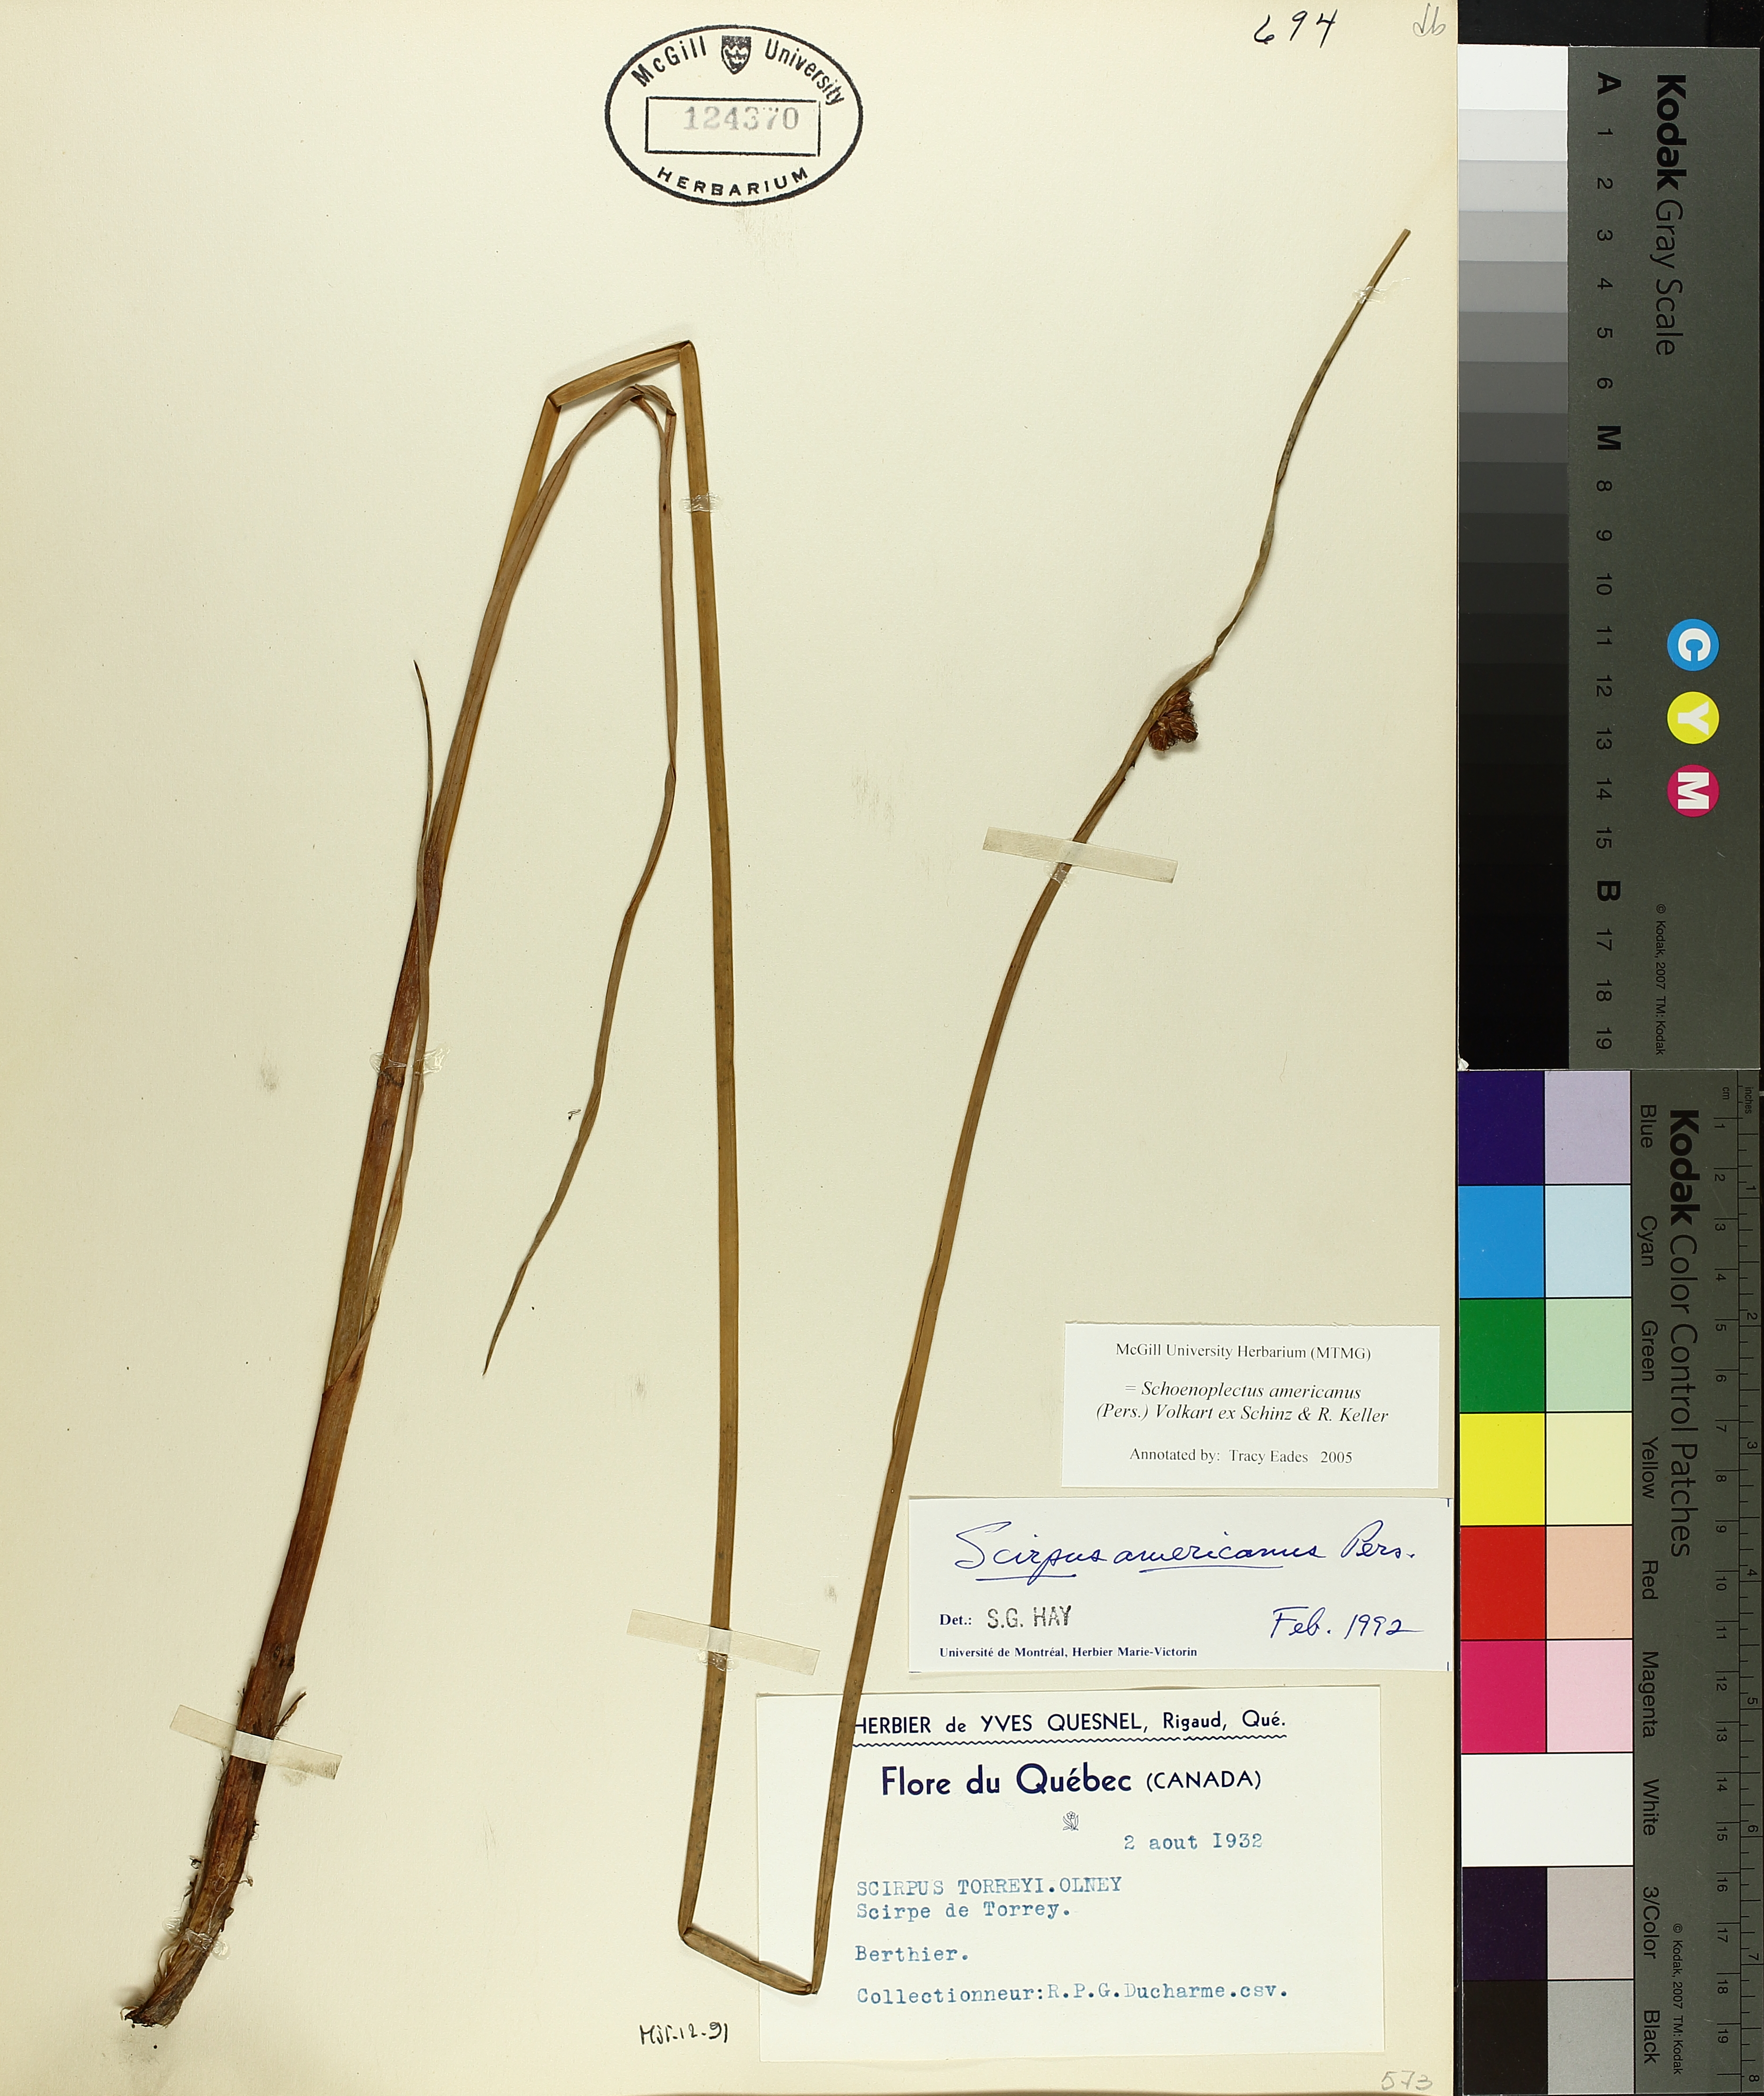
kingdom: Plantae
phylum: Tracheophyta
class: Liliopsida
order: Poales
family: Cyperaceae
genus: Schoenoplectus
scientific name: Schoenoplectus americanus
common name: American three-square bulrush
